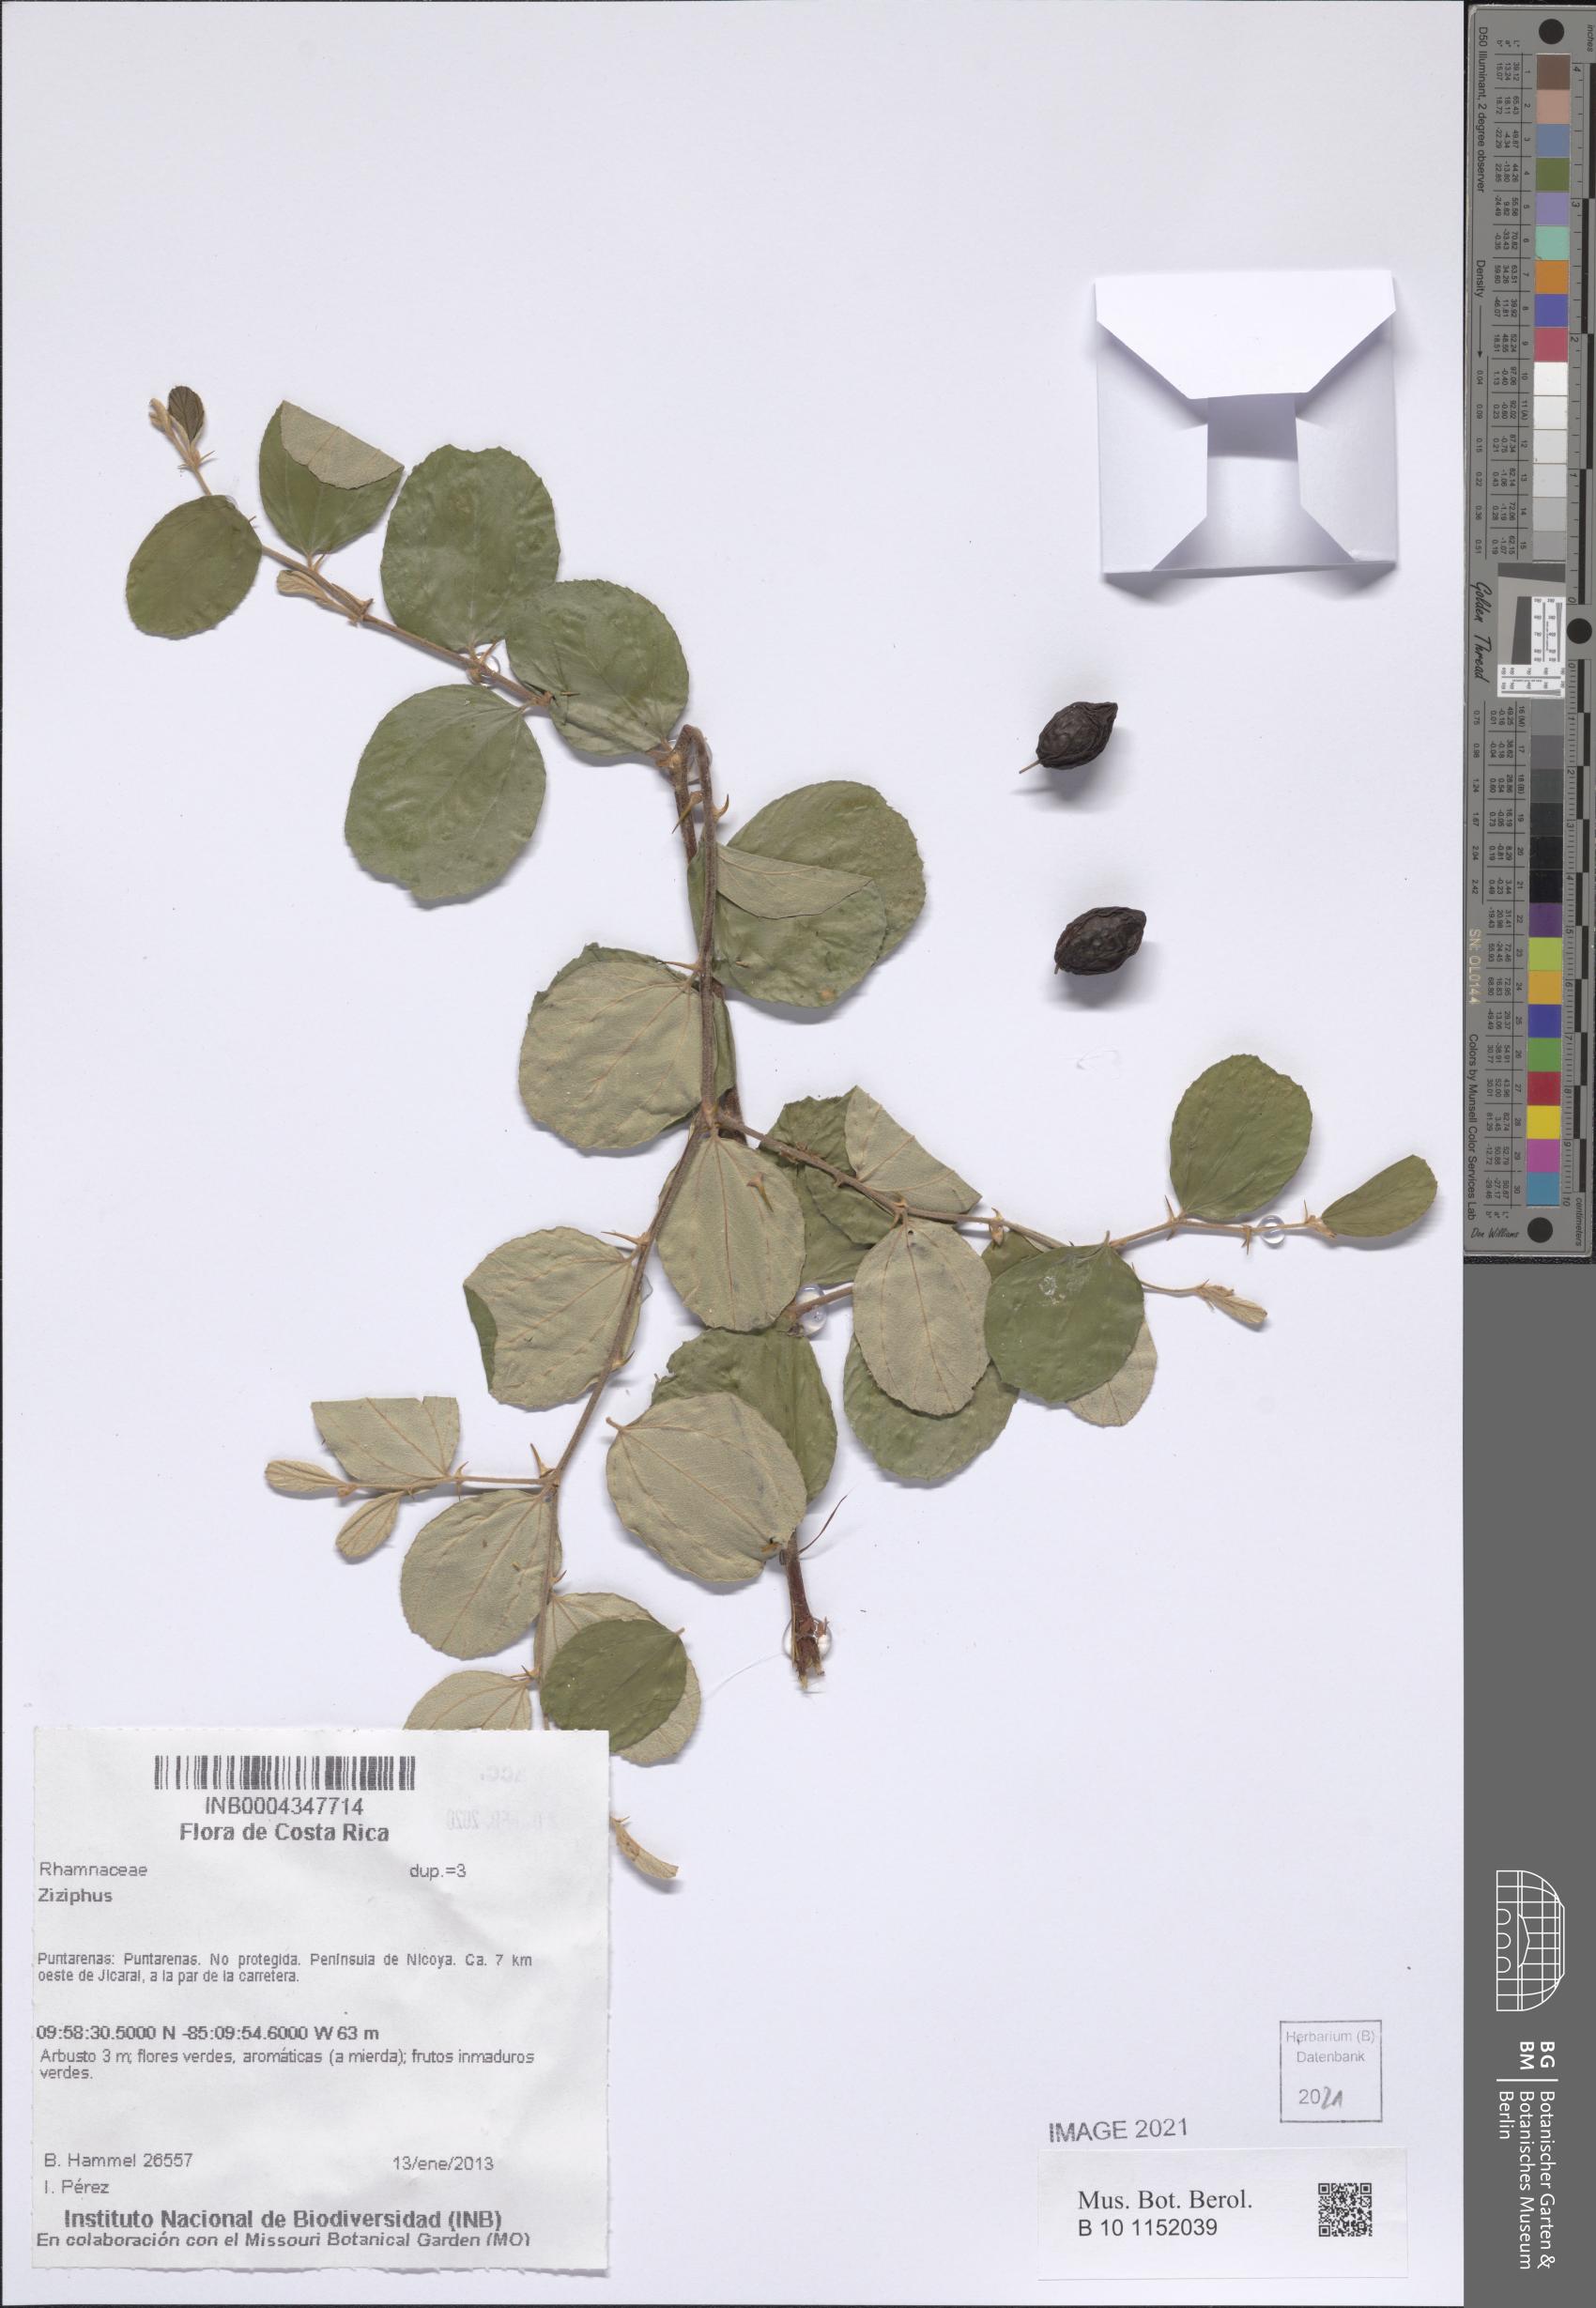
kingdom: Plantae
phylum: Tracheophyta
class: Magnoliopsida
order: Rosales
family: Rhamnaceae
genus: Ziziphus
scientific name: Ziziphus
